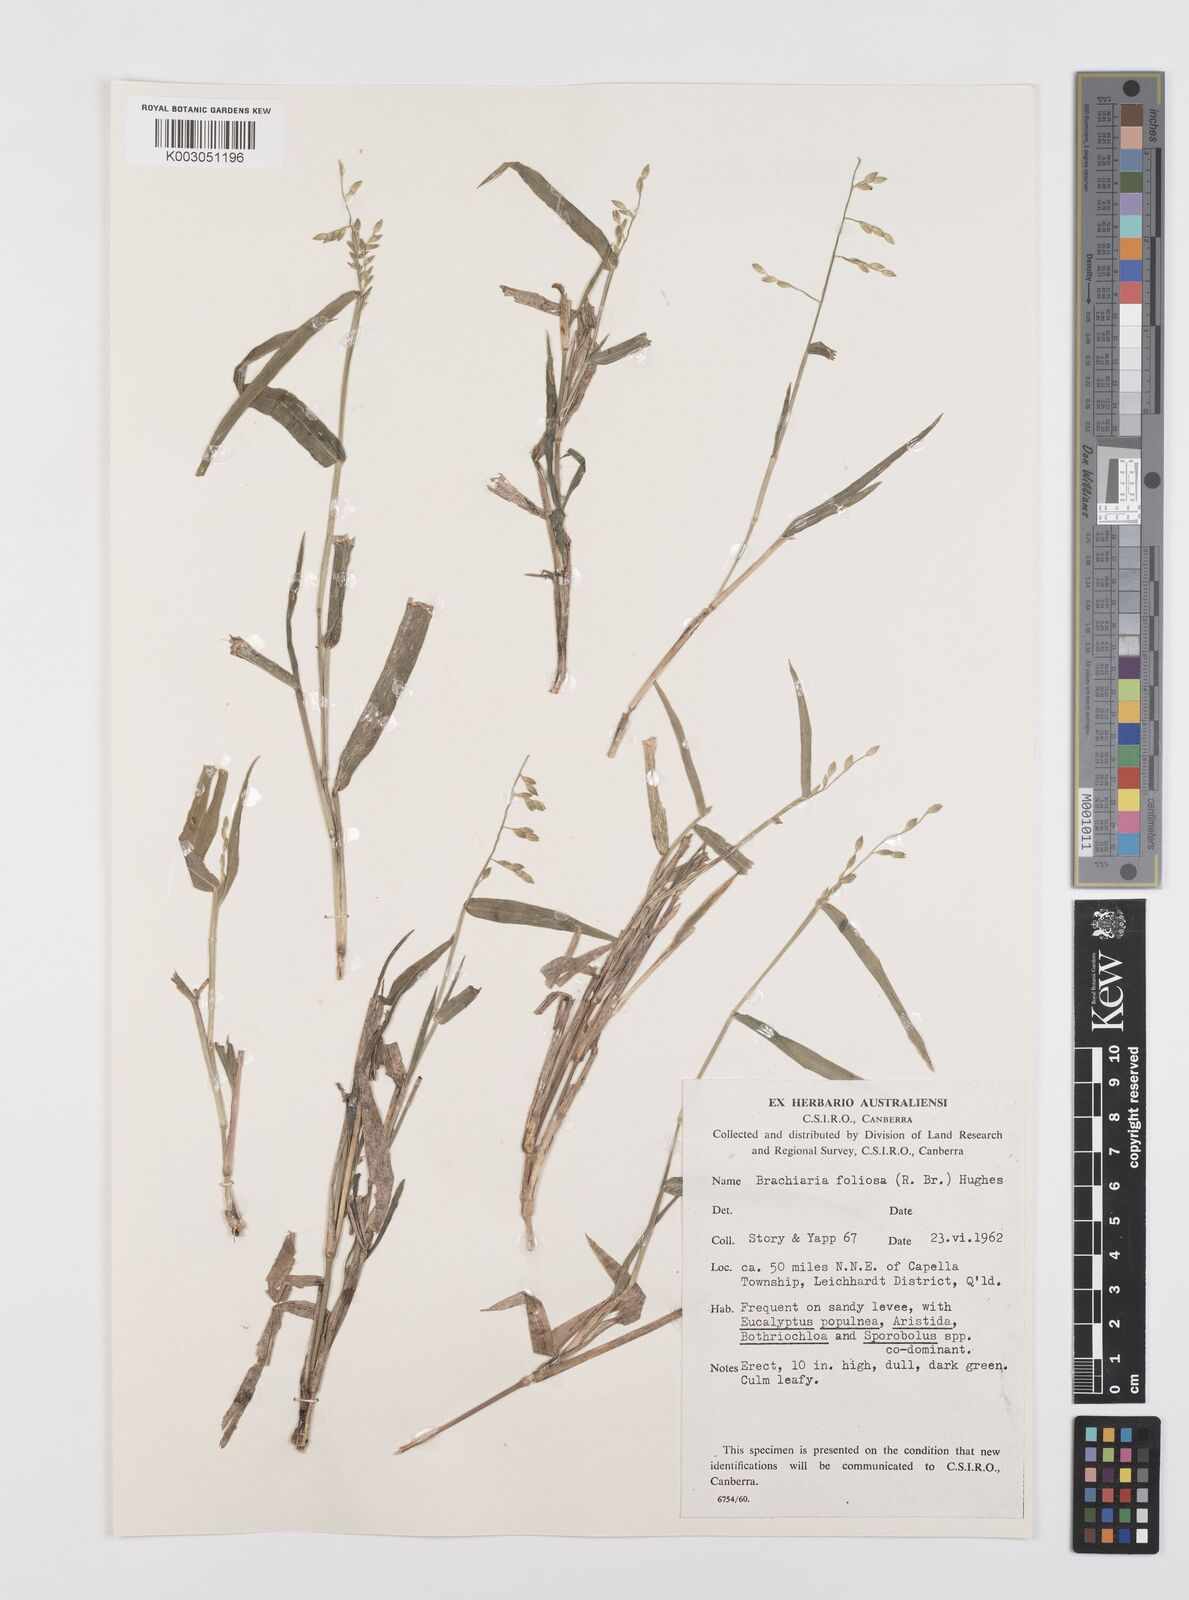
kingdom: Plantae
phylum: Tracheophyta
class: Liliopsida
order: Poales
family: Poaceae
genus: Urochloa
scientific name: Urochloa foliosa
